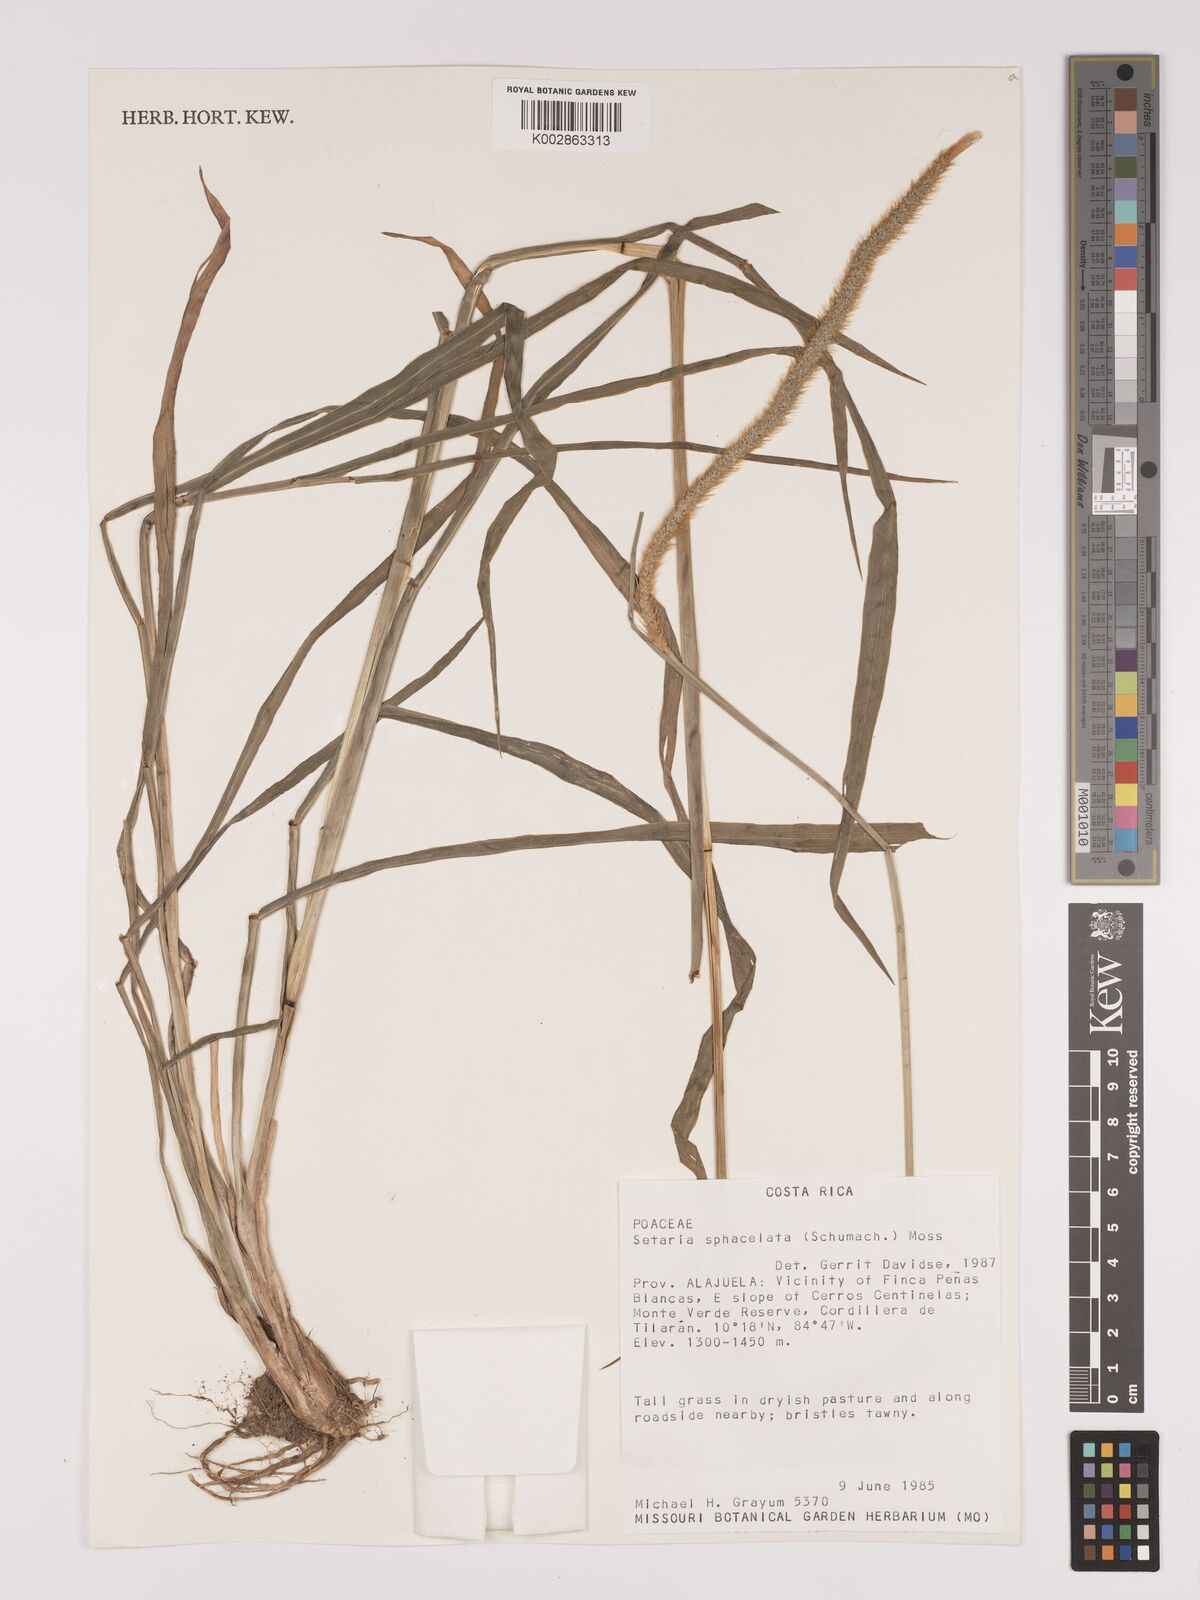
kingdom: Plantae
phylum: Tracheophyta
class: Liliopsida
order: Poales
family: Poaceae
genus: Setaria
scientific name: Setaria sphacelata
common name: African bristlegrass
